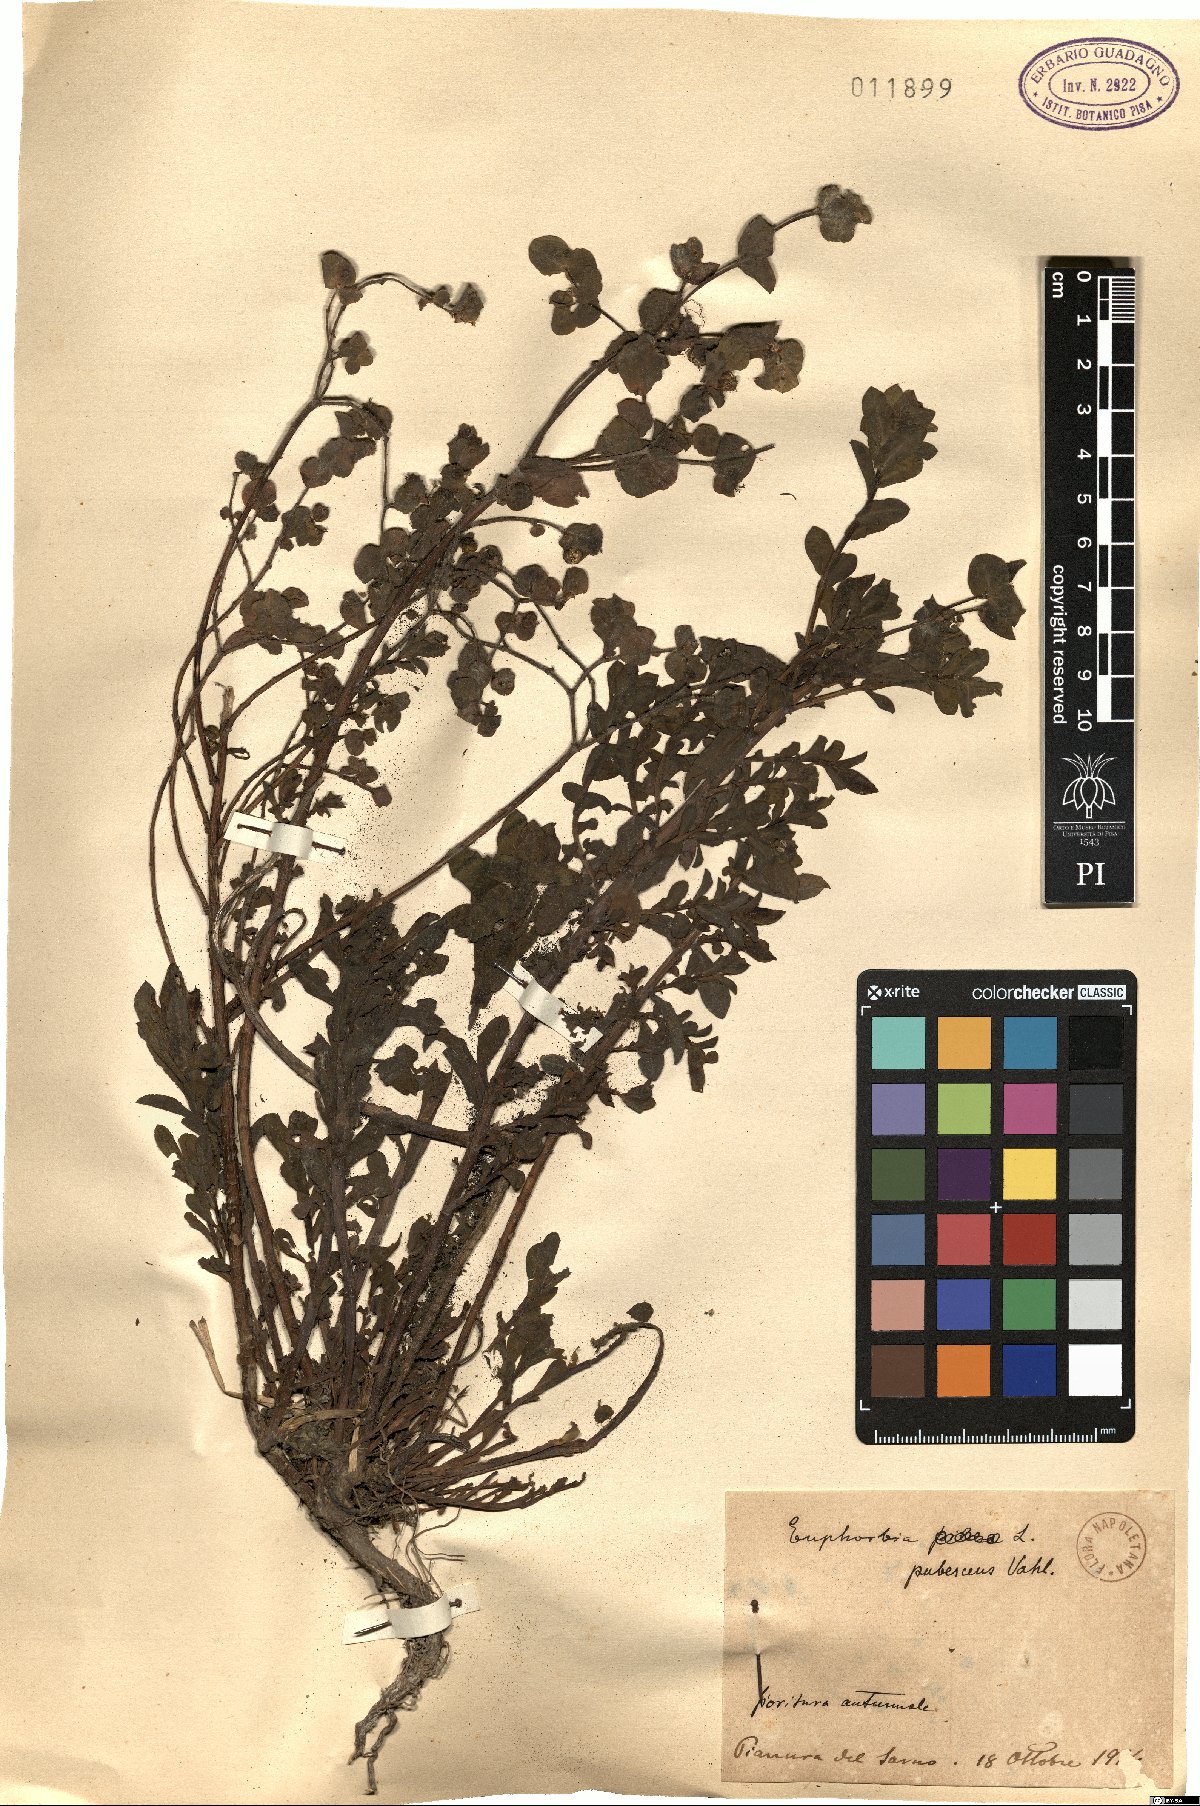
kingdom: Plantae
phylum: Tracheophyta
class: Magnoliopsida
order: Malpighiales
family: Euphorbiaceae
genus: Euphorbia
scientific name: Euphorbia hirsuta
